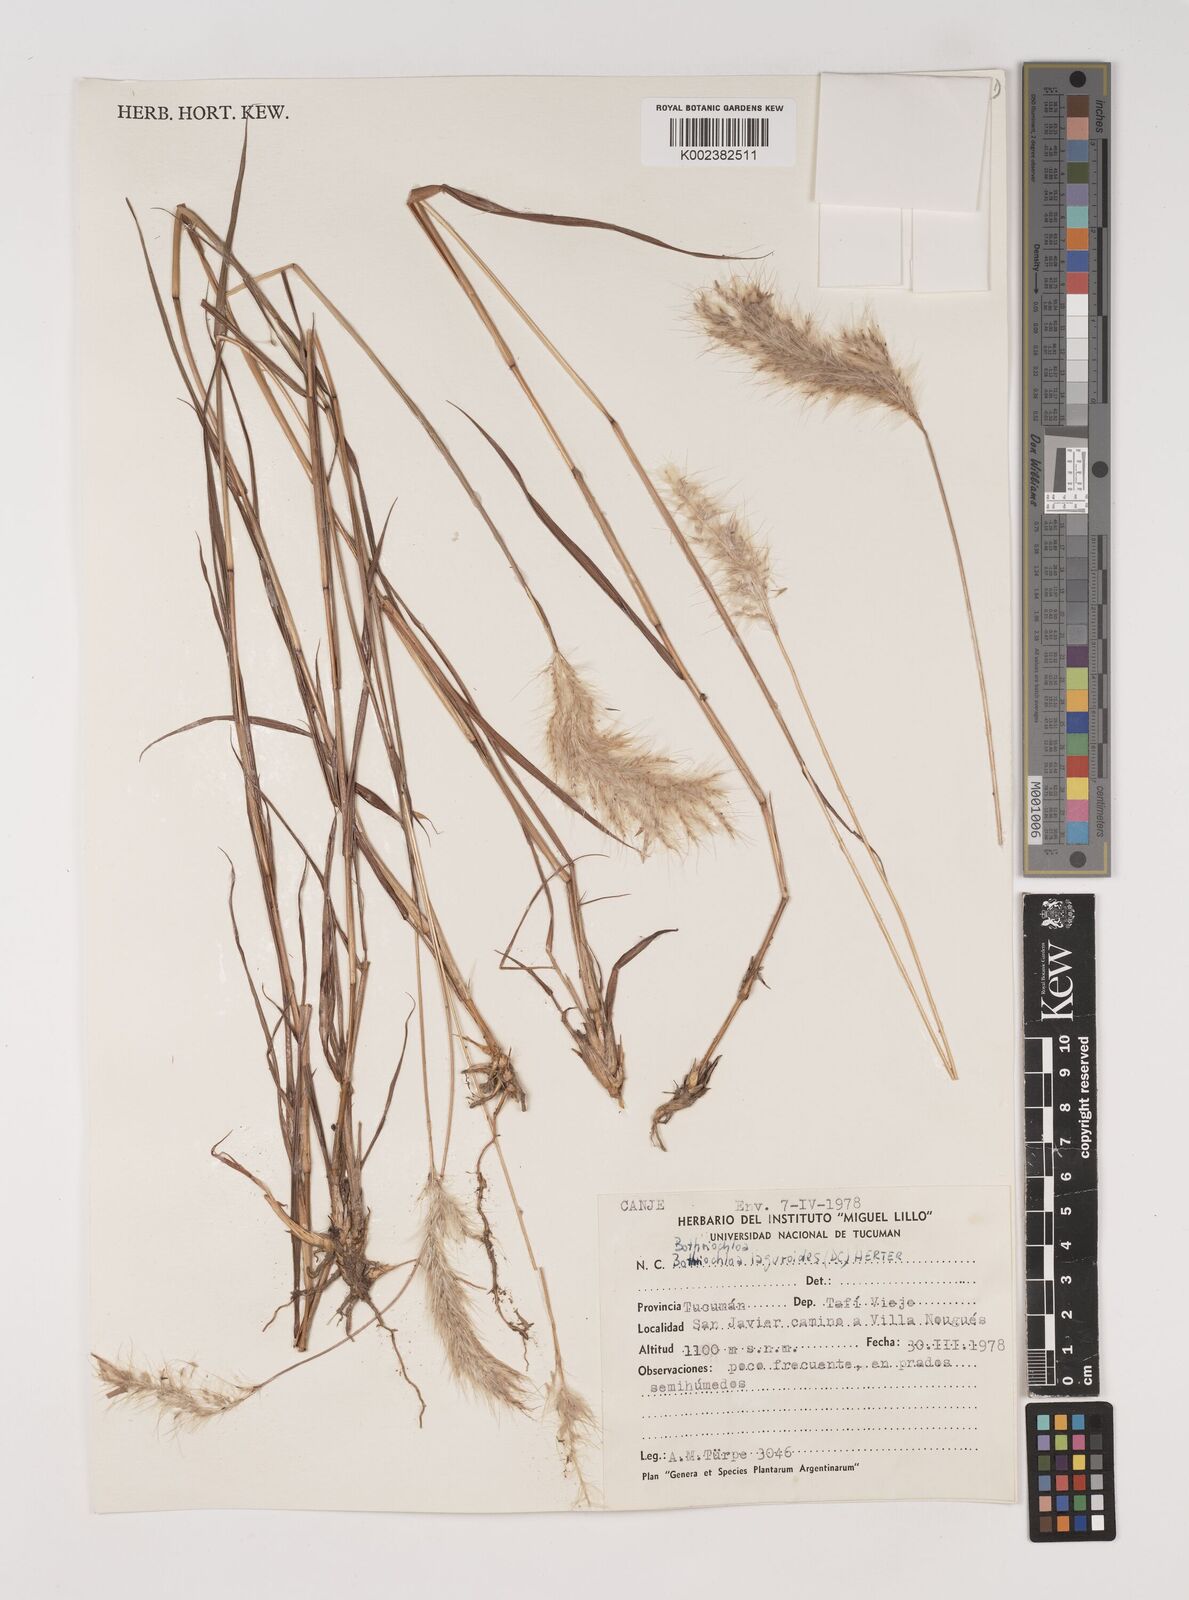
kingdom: Plantae
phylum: Tracheophyta
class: Liliopsida
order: Poales
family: Poaceae
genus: Bothriochloa
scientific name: Bothriochloa laguroides
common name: Silver bluestem
